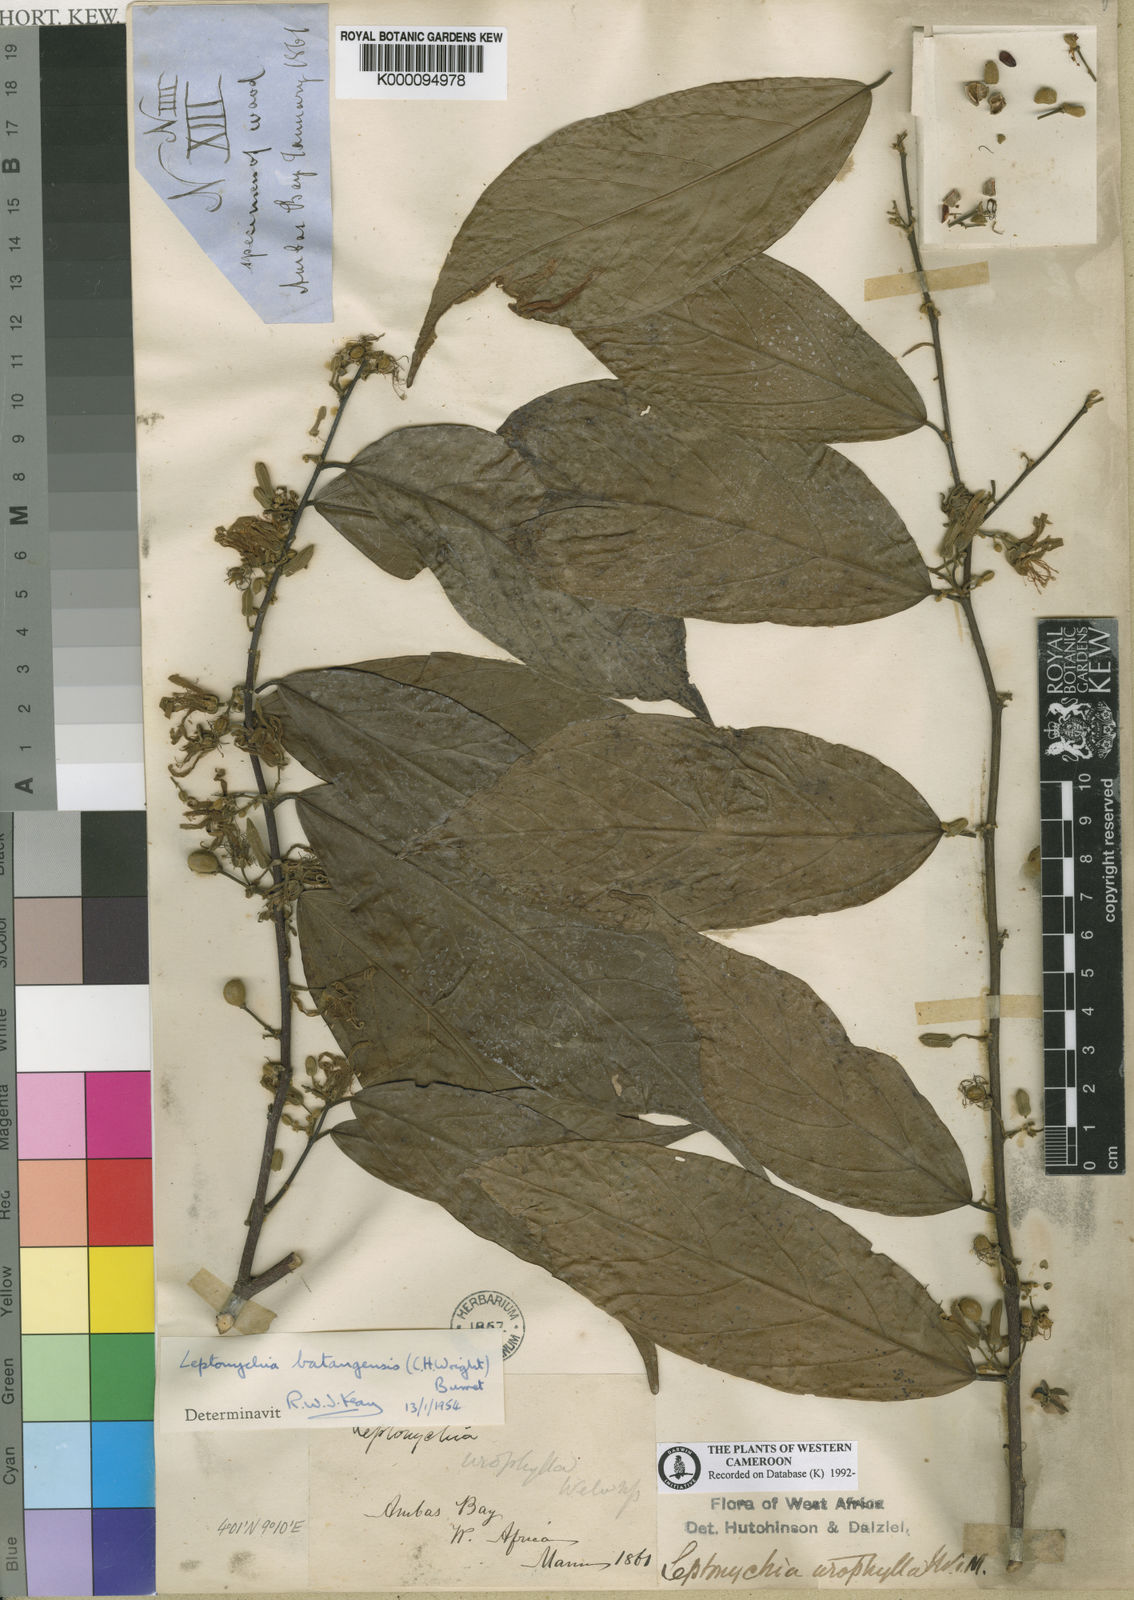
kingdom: Plantae
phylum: Tracheophyta
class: Magnoliopsida
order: Malvales
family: Malvaceae
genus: Leptonychia
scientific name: Leptonychia batangensis
